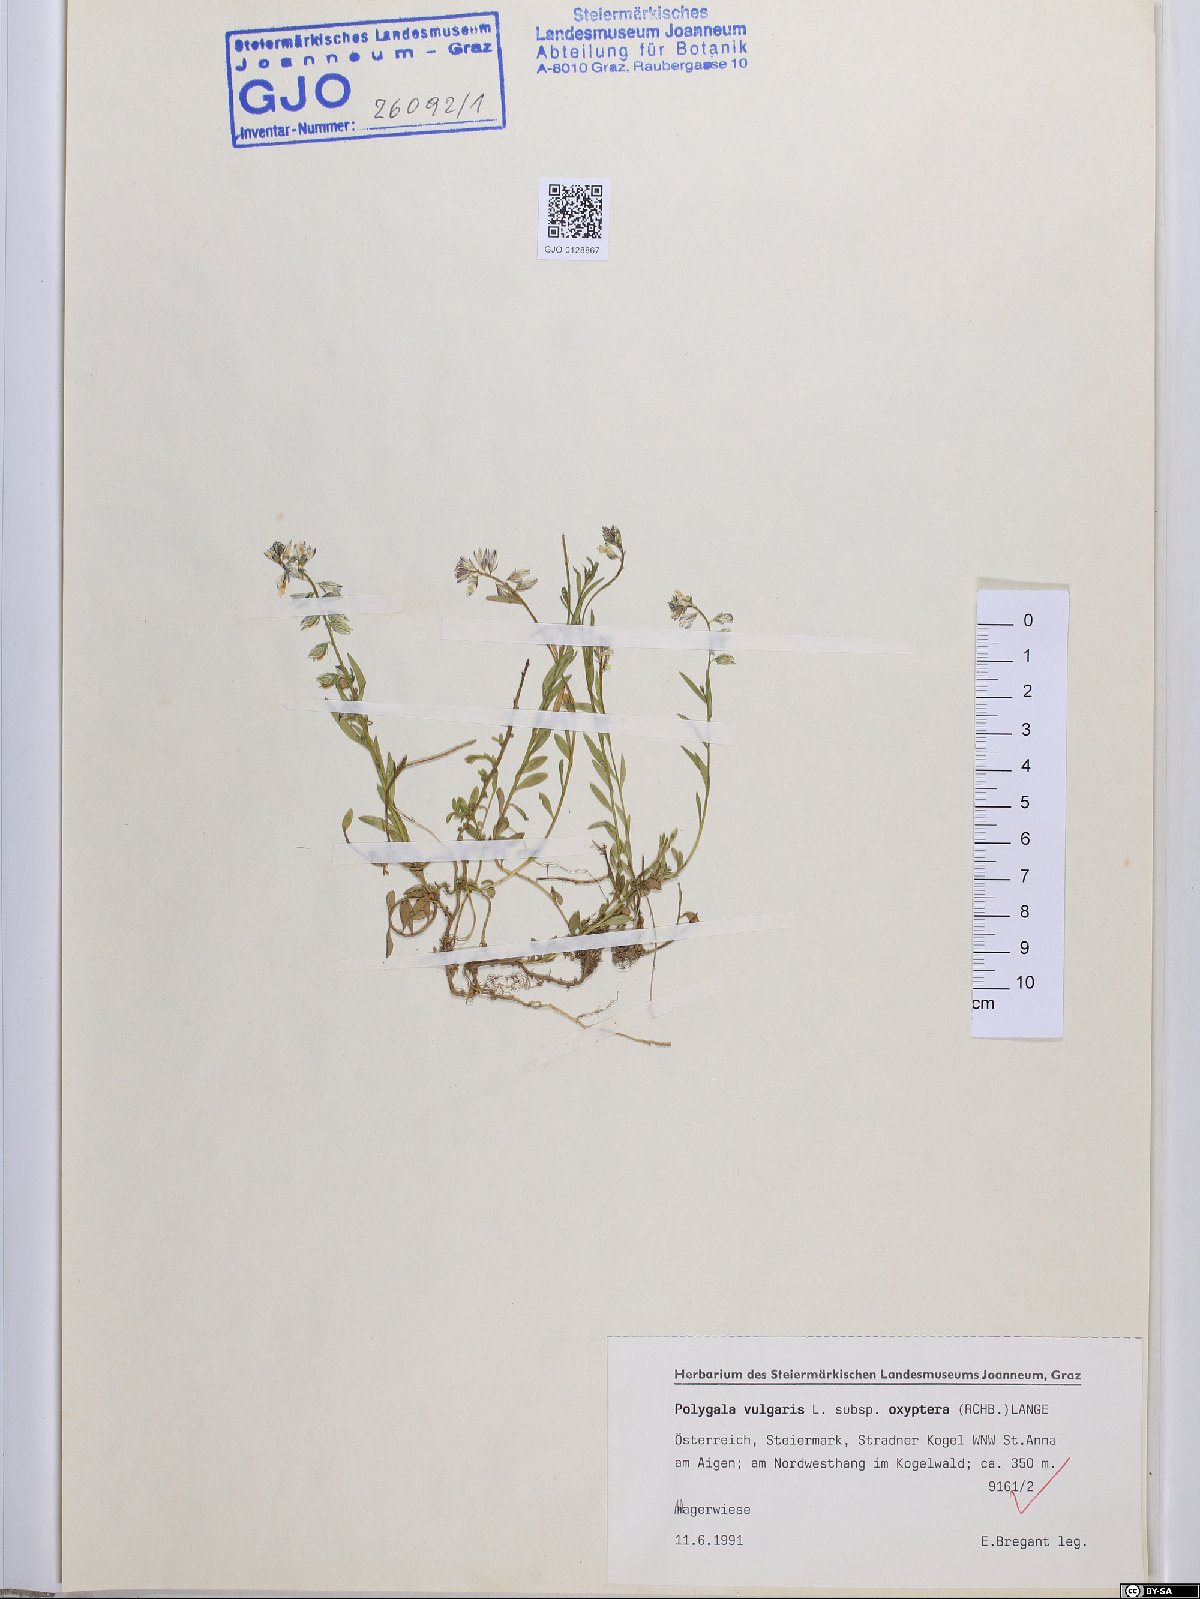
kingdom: Plantae
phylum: Tracheophyta
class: Magnoliopsida
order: Fabales
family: Polygalaceae
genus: Polygala
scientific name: Polygala vulgaris
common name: Common milkwort
